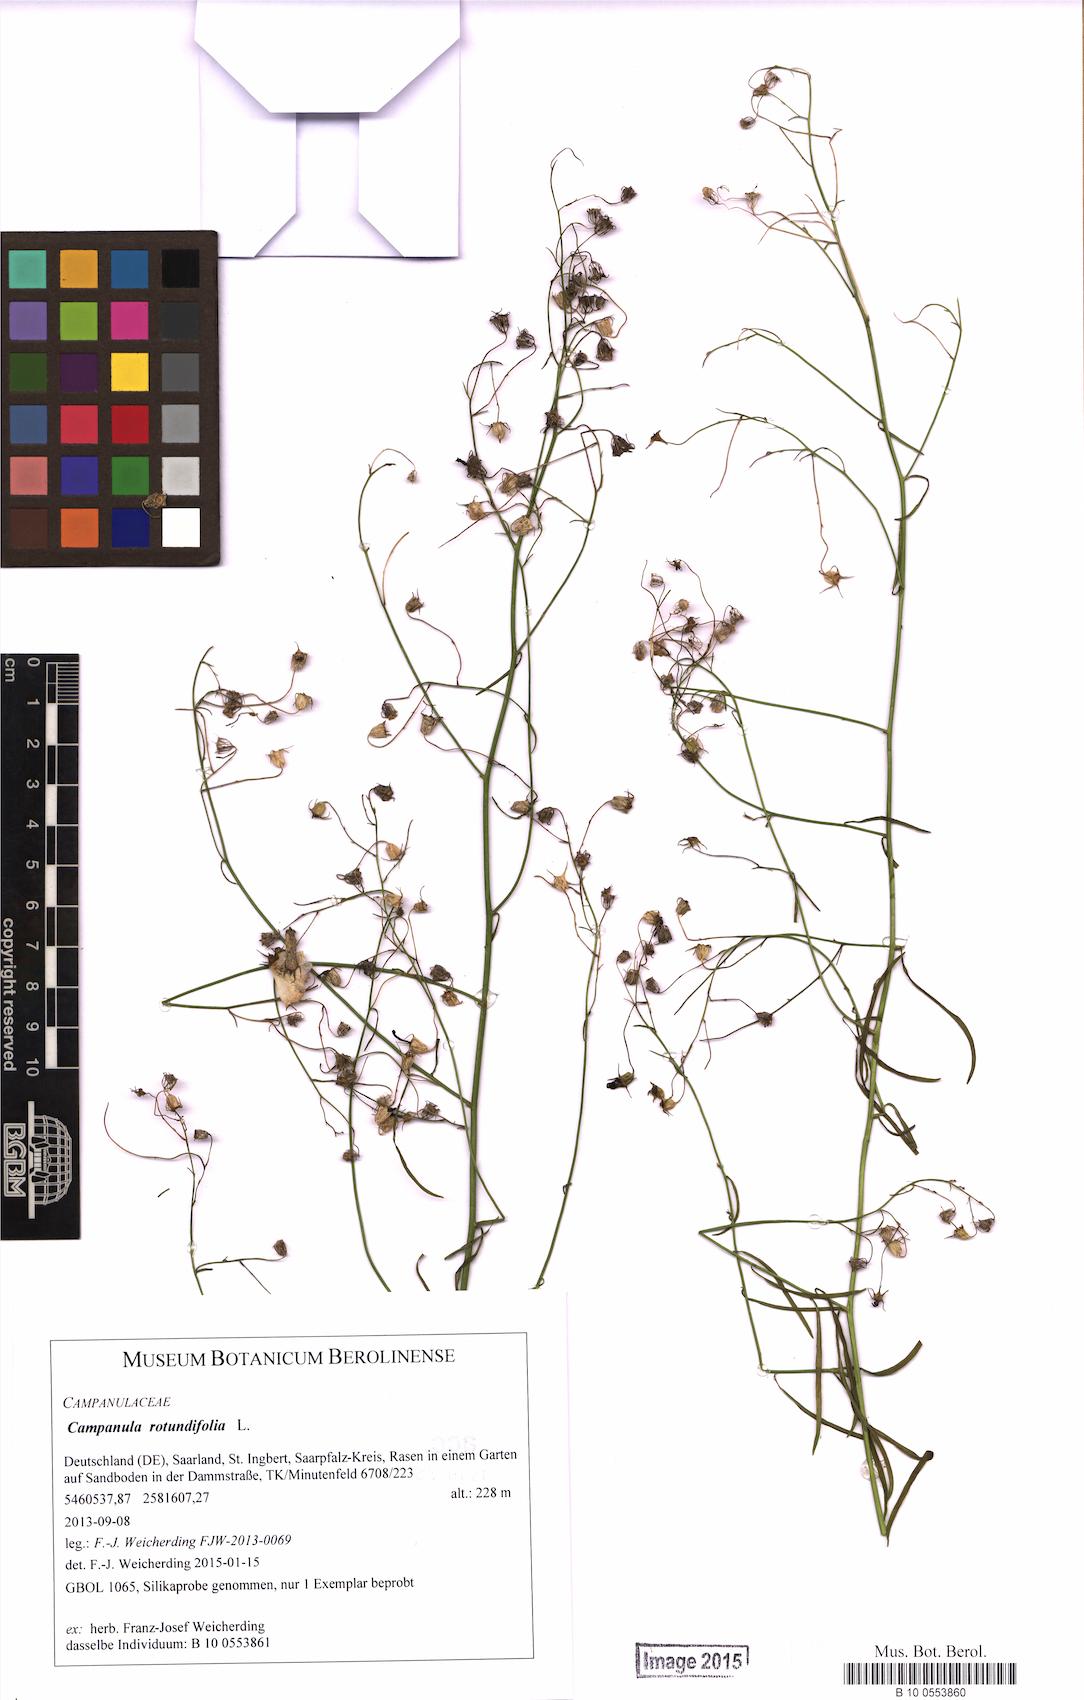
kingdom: Plantae
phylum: Tracheophyta
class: Magnoliopsida
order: Asterales
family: Campanulaceae
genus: Campanula
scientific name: Campanula rotundifolia
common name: Harebell
